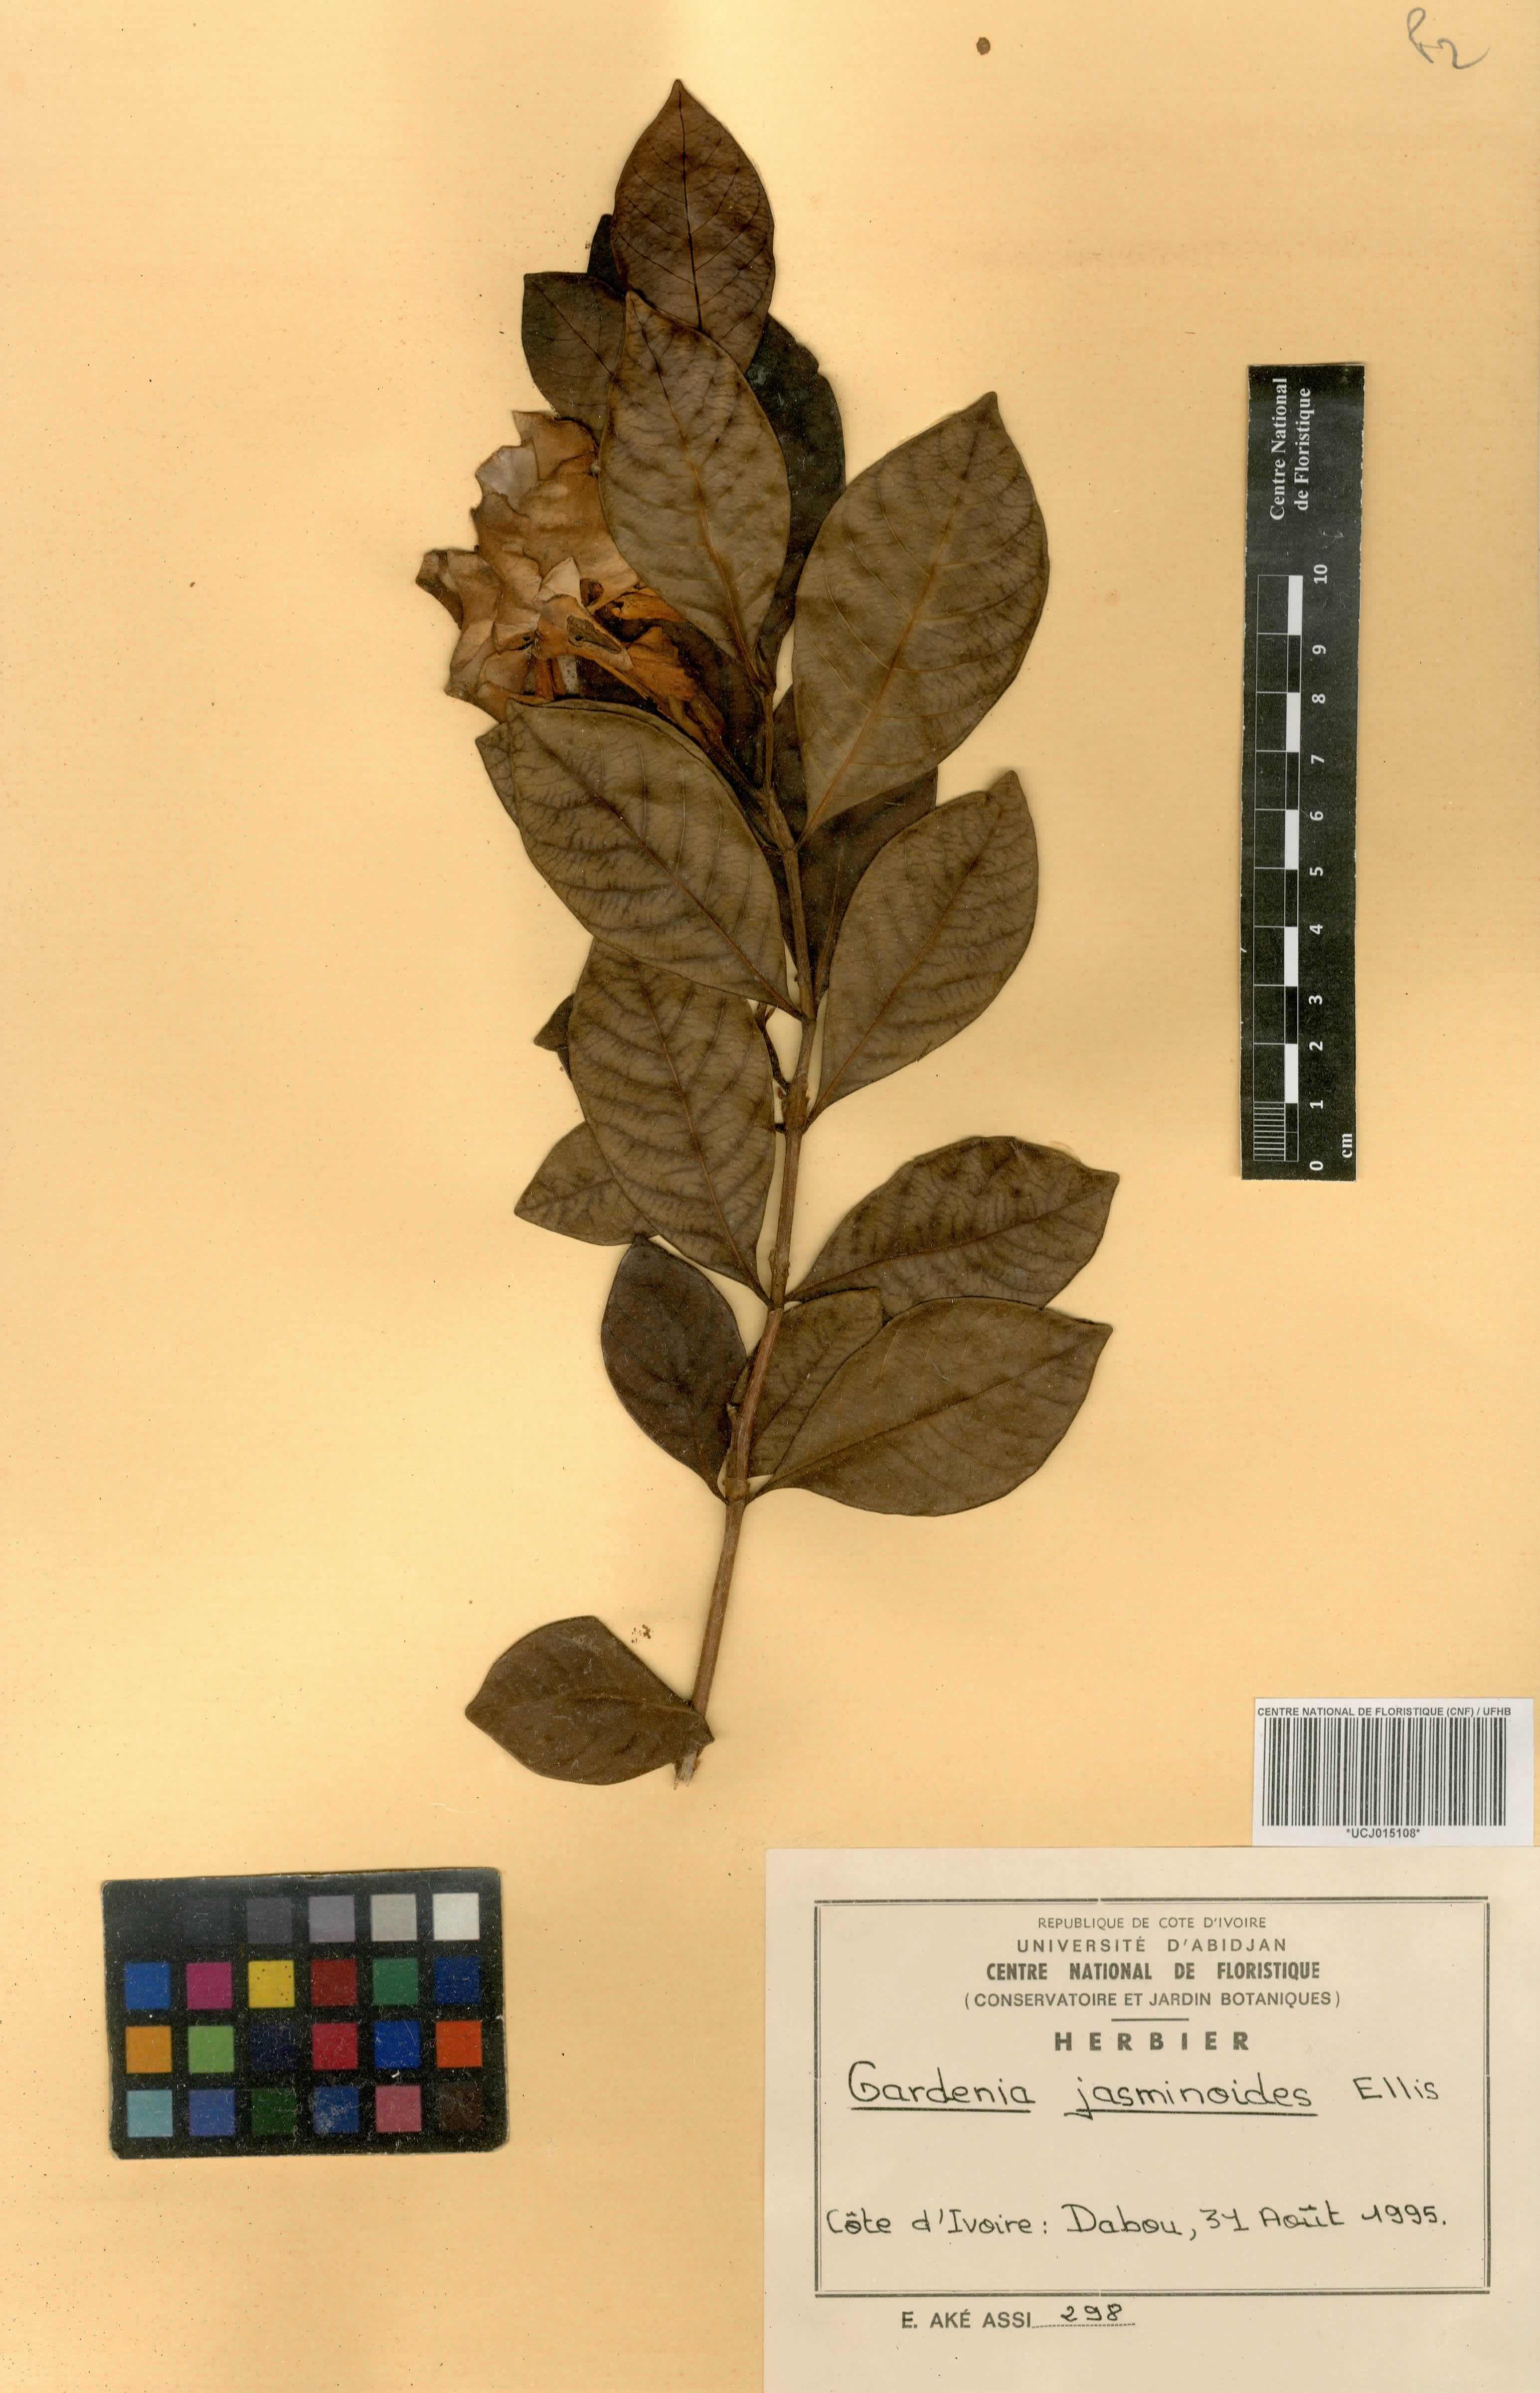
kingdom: Plantae
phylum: Tracheophyta
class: Magnoliopsida
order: Gentianales
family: Rubiaceae
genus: Gardenia
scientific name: Gardenia jasminoides
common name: Cape-jasmine
